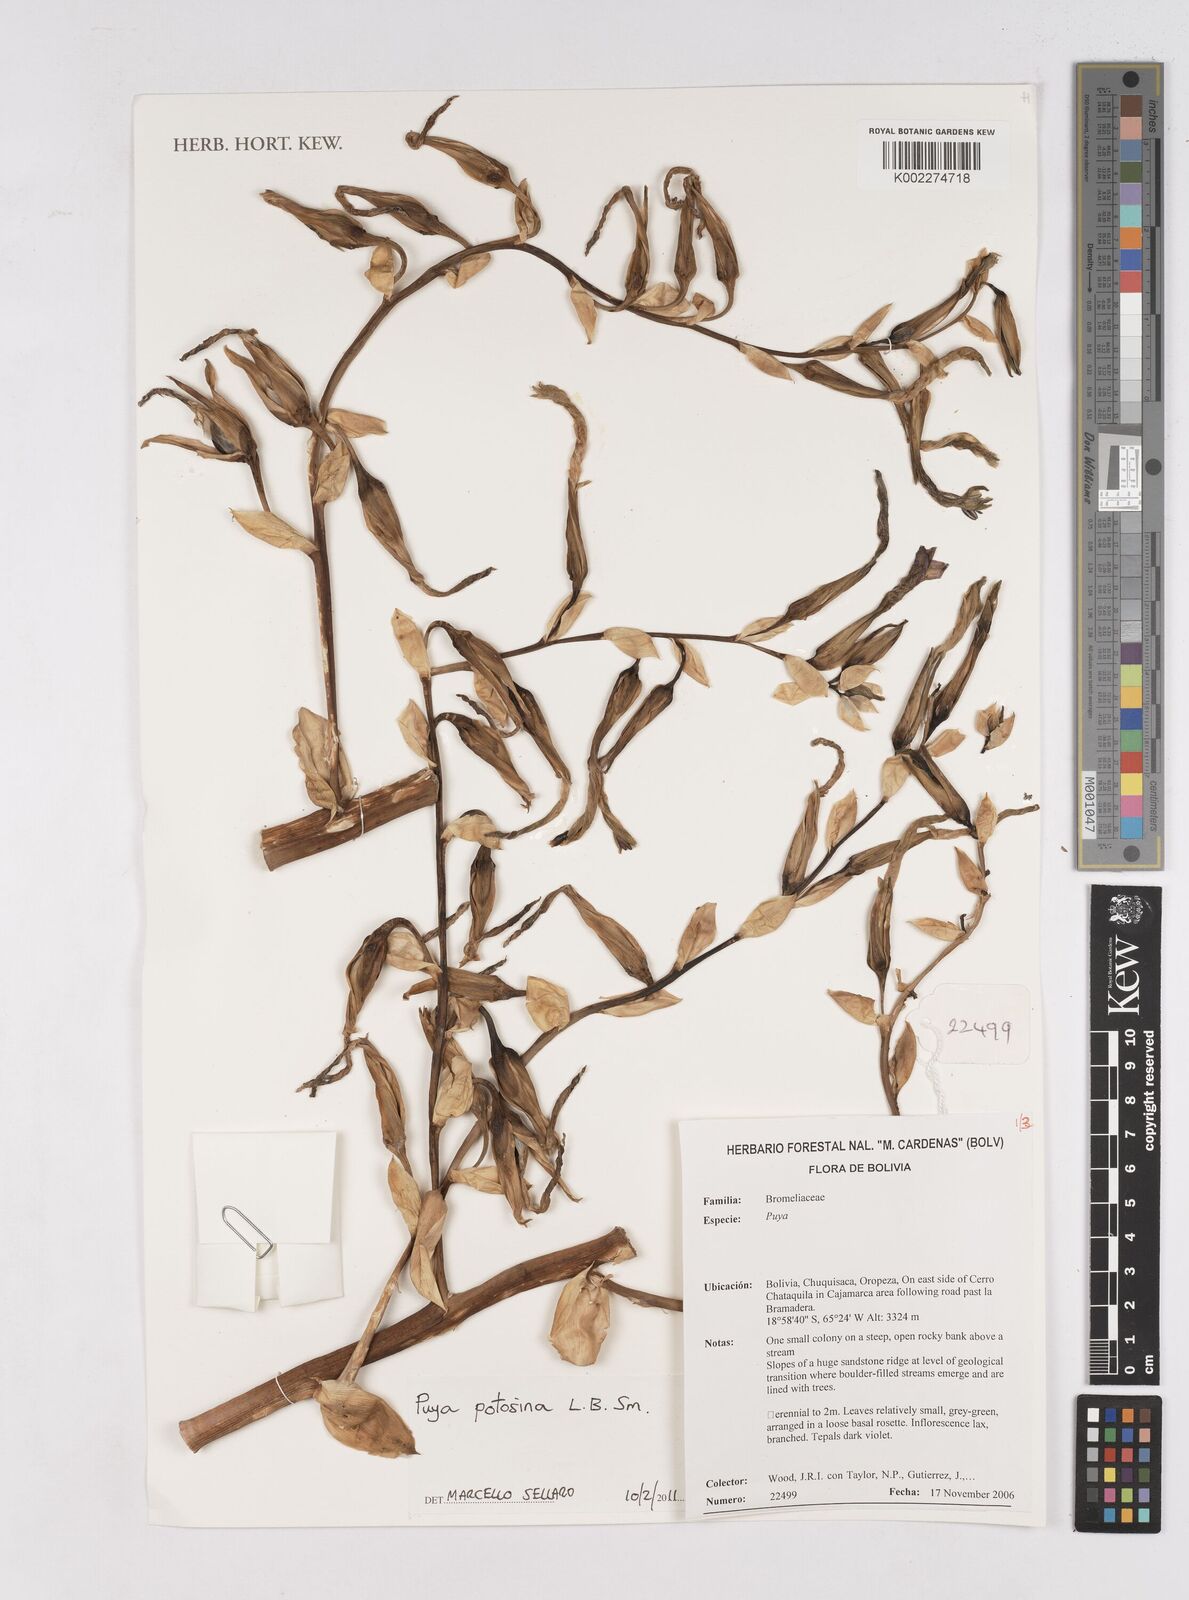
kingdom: Plantae
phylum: Tracheophyta
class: Liliopsida
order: Poales
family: Bromeliaceae
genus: Puya
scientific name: Puya potosina
